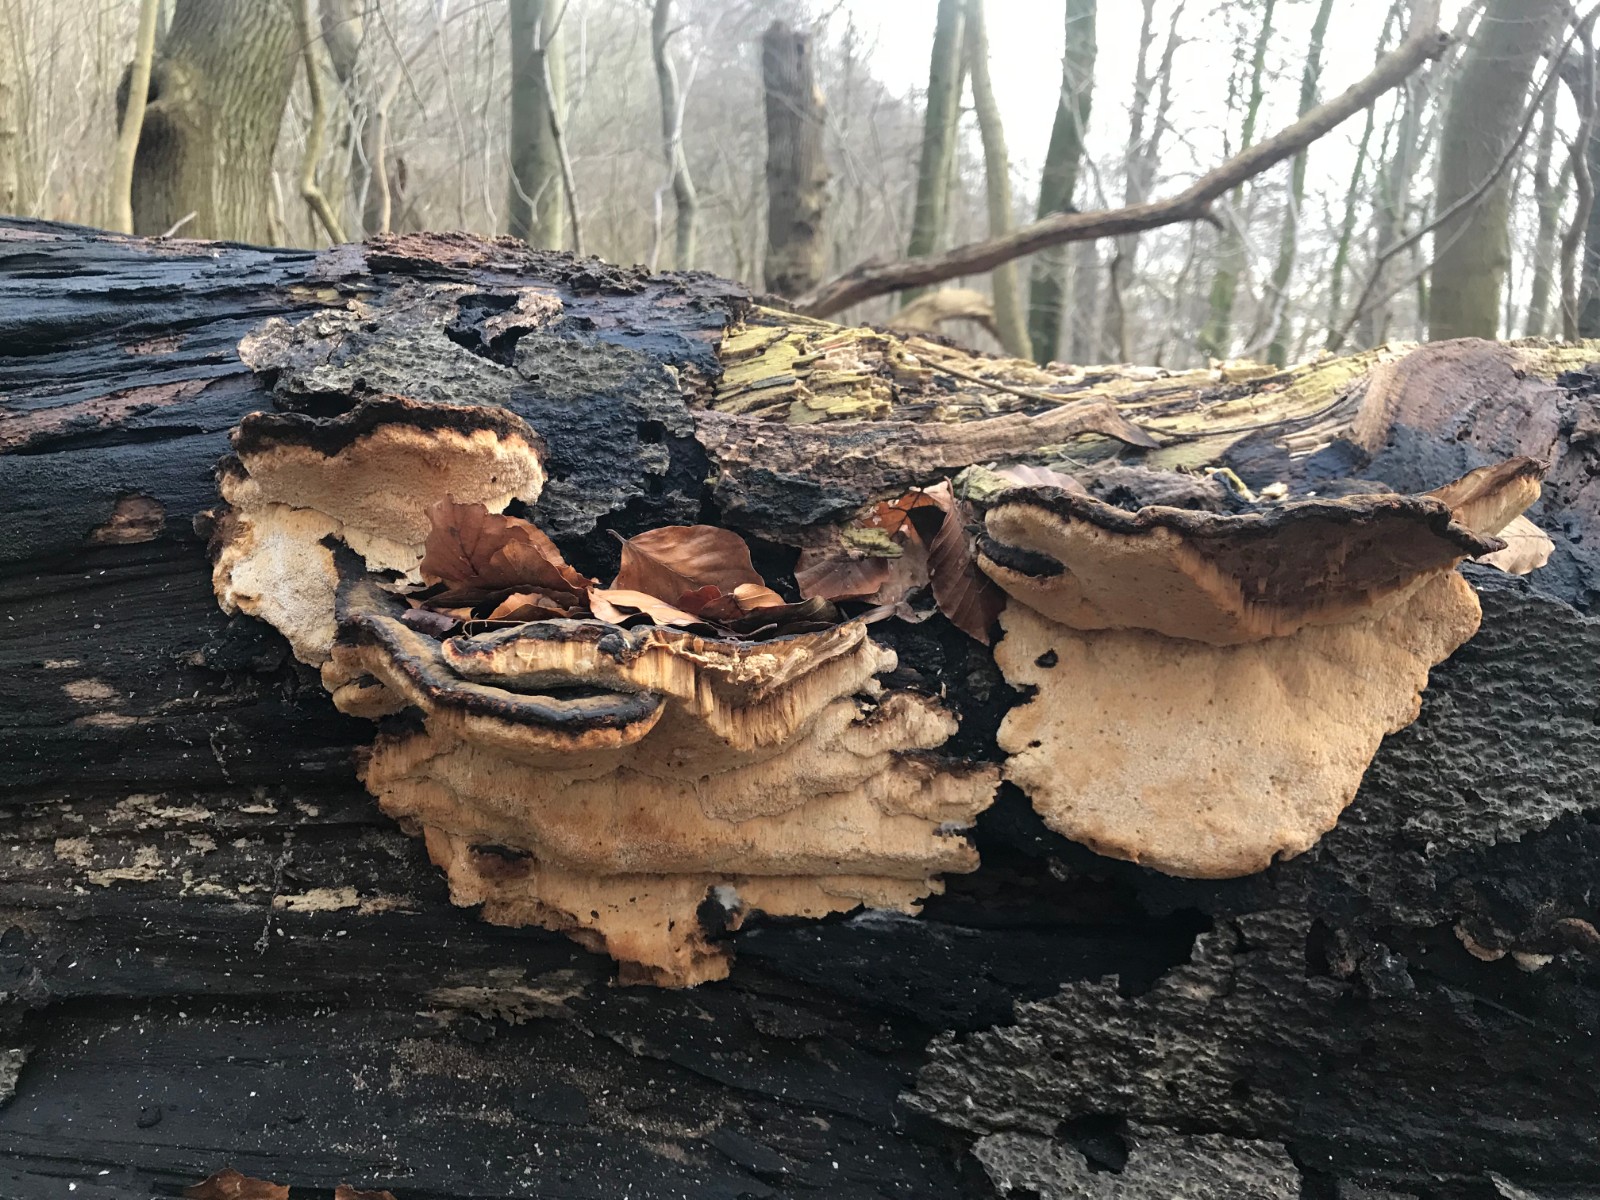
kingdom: Fungi
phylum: Basidiomycota
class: Agaricomycetes
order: Polyporales
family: Ischnodermataceae
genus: Ischnoderma
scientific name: Ischnoderma resinosum
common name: løv-tjæreporesvamp
